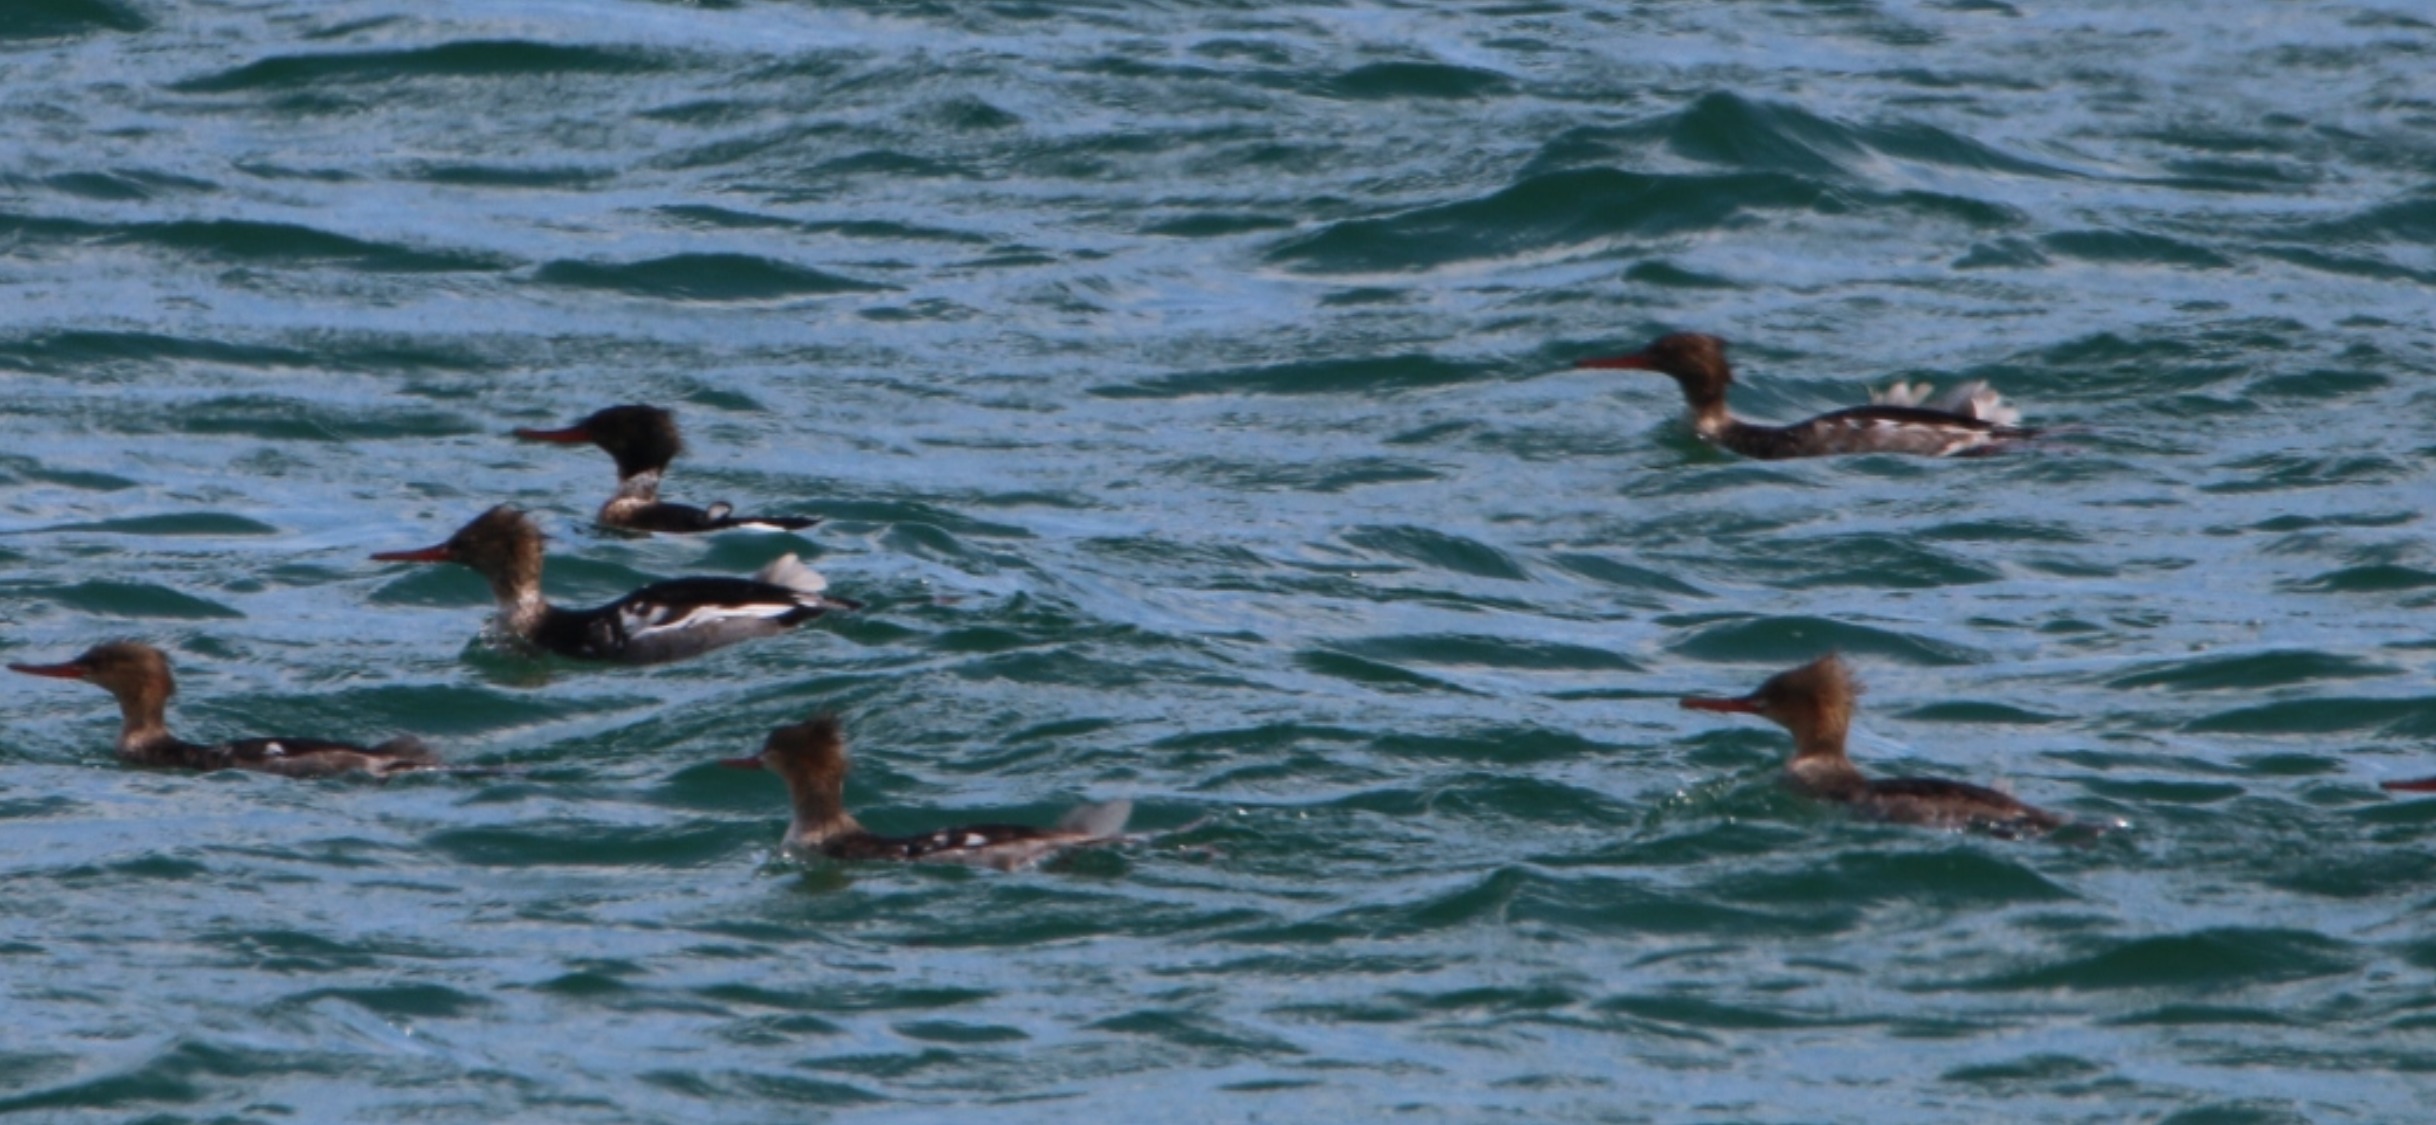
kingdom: Animalia
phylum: Chordata
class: Aves
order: Anseriformes
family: Anatidae
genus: Mergus
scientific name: Mergus serrator
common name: Toppet skallesluger
